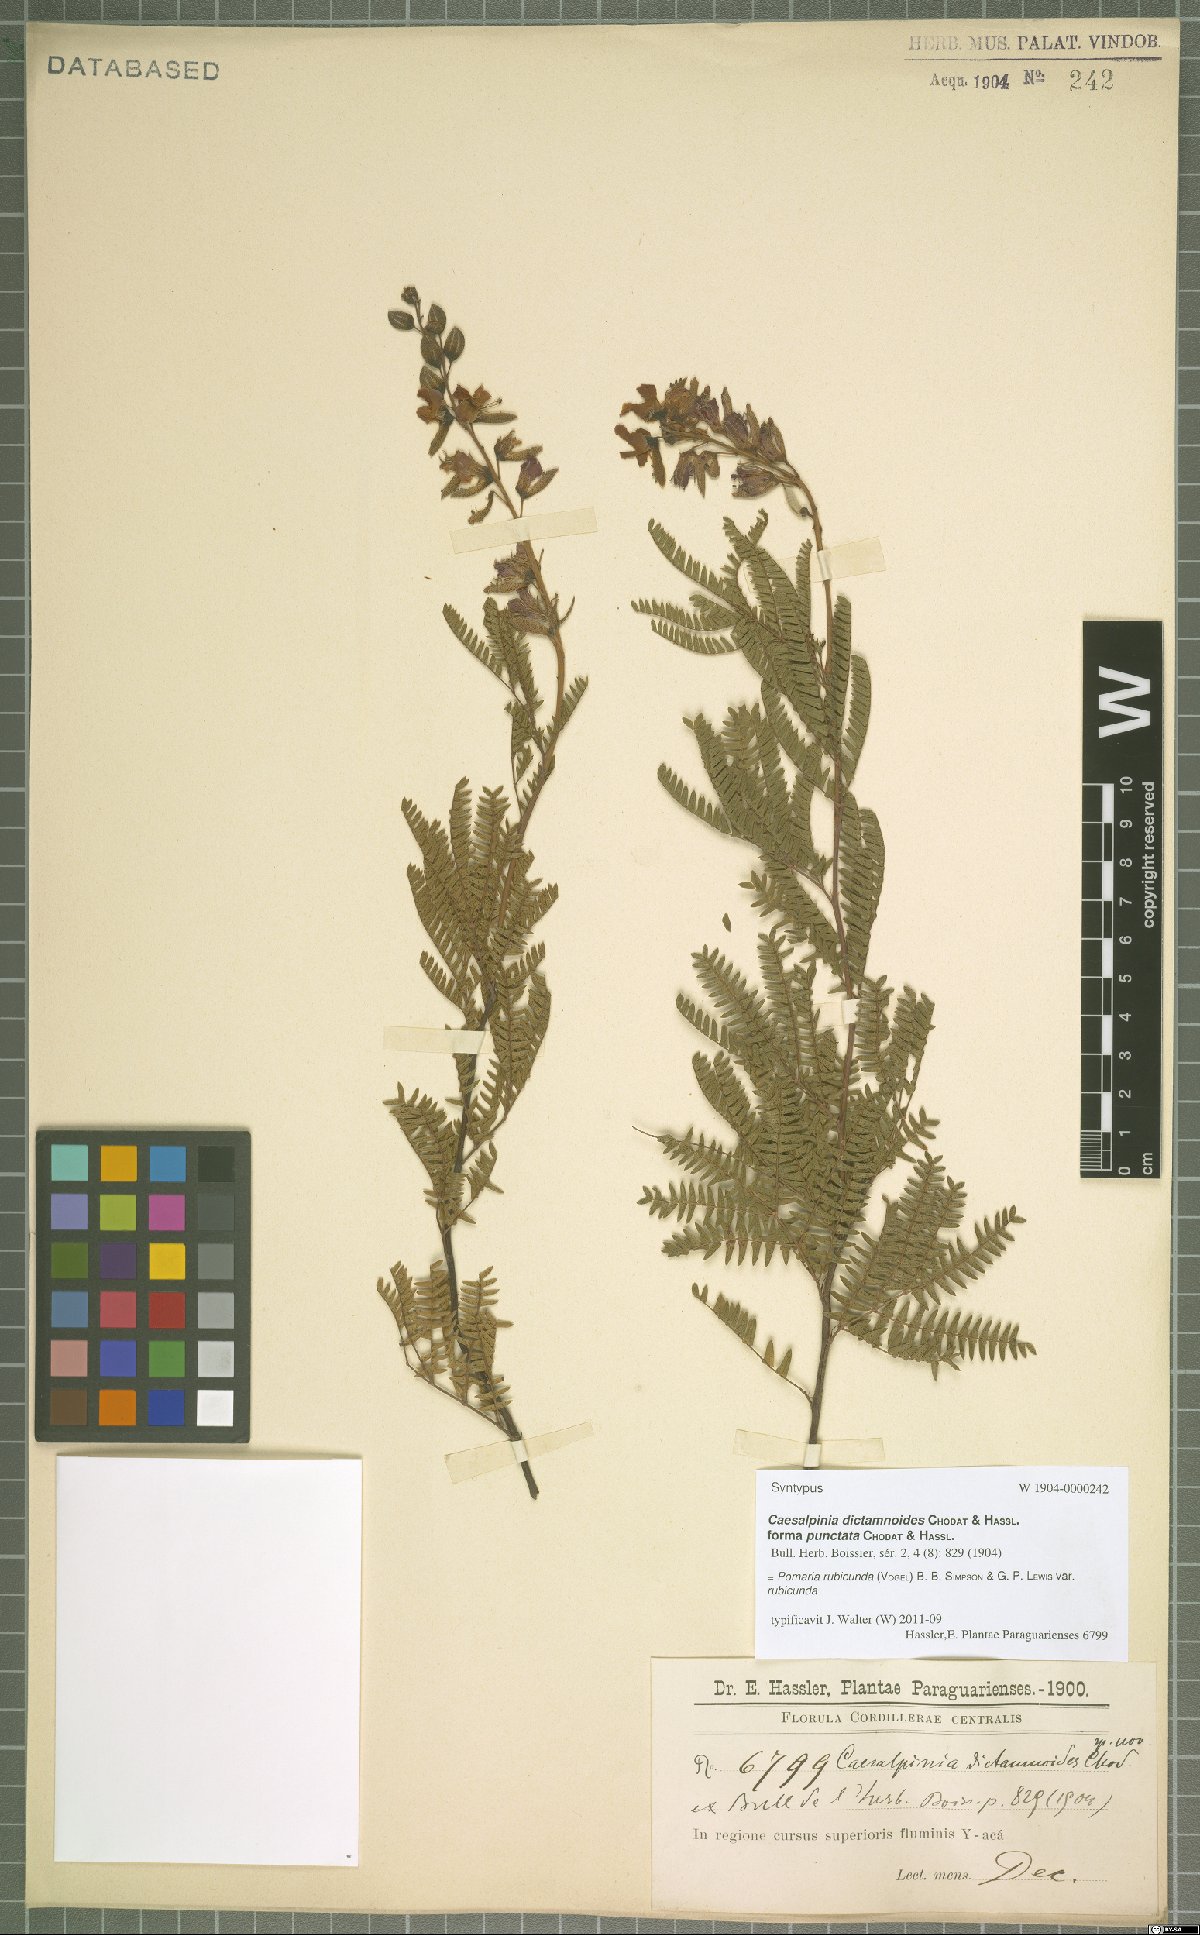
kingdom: Plantae
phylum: Tracheophyta
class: Magnoliopsida
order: Fabales
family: Fabaceae
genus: Pomaria
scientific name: Pomaria rubicunda
